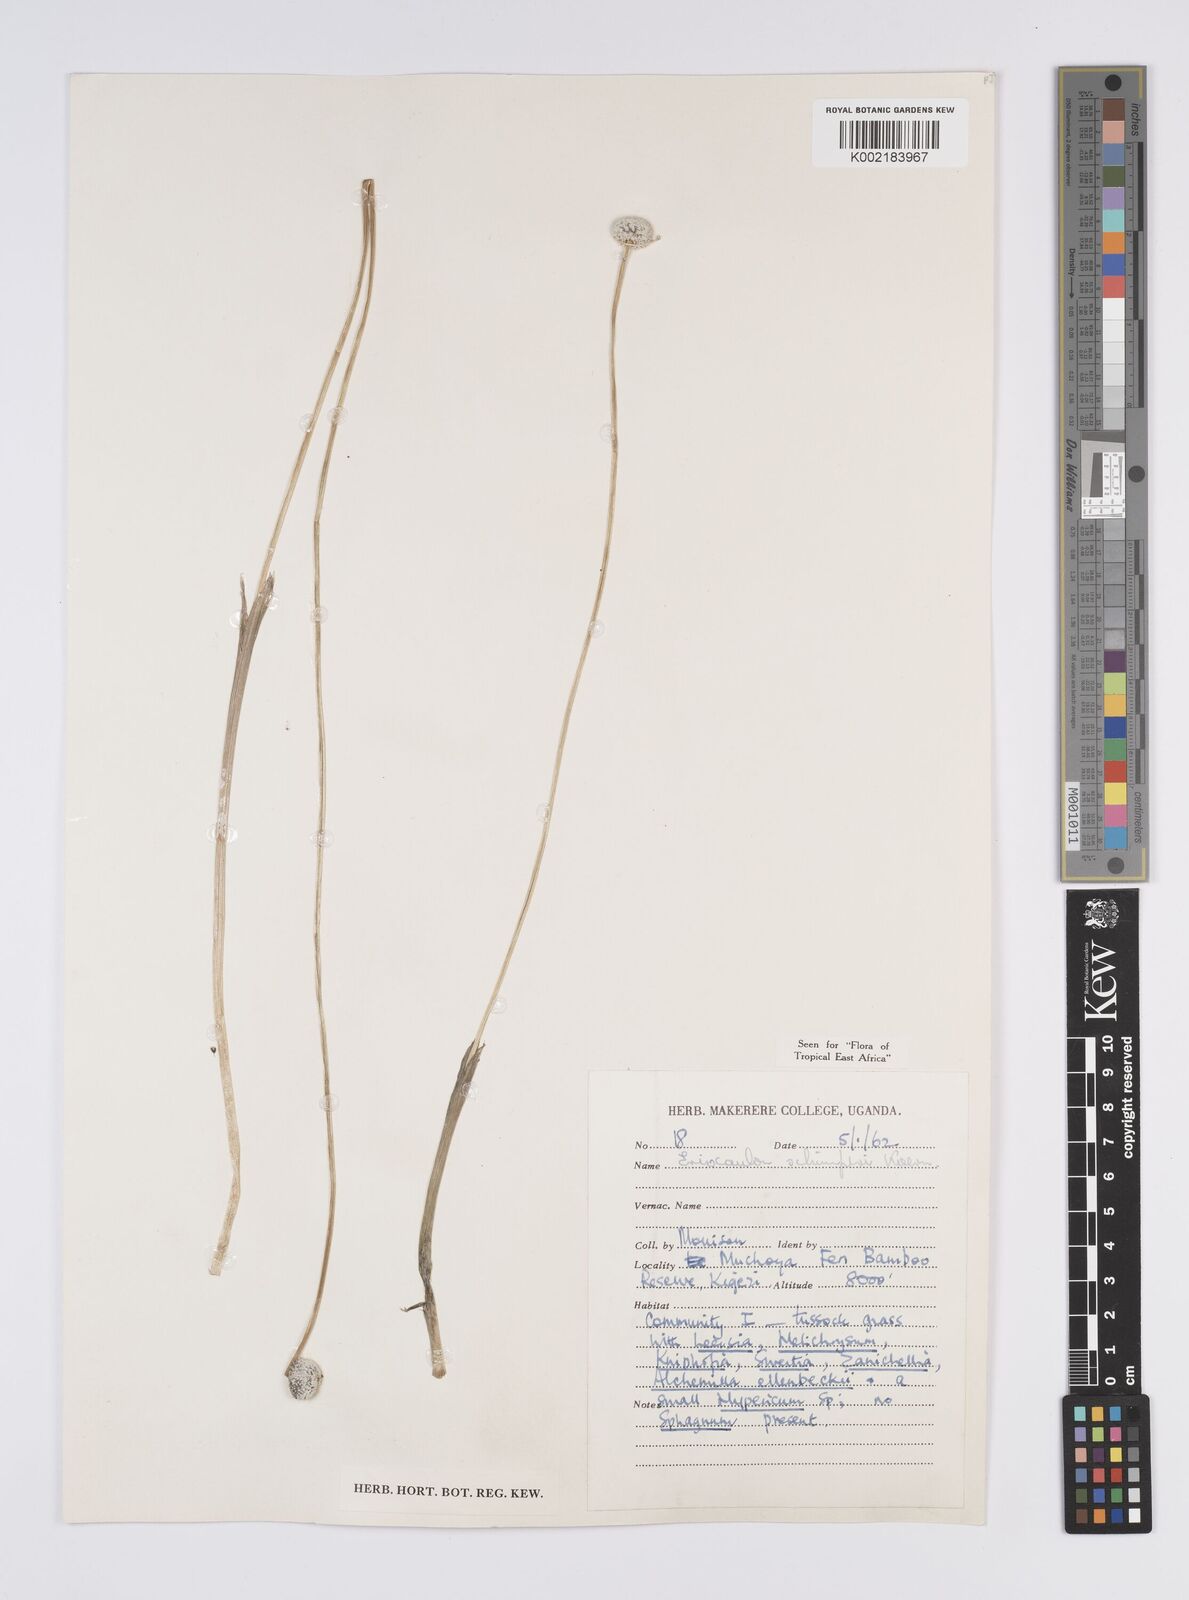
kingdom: Plantae
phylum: Tracheophyta
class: Liliopsida
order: Poales
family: Eriocaulaceae
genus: Eriocaulon
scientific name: Eriocaulon schimperi
